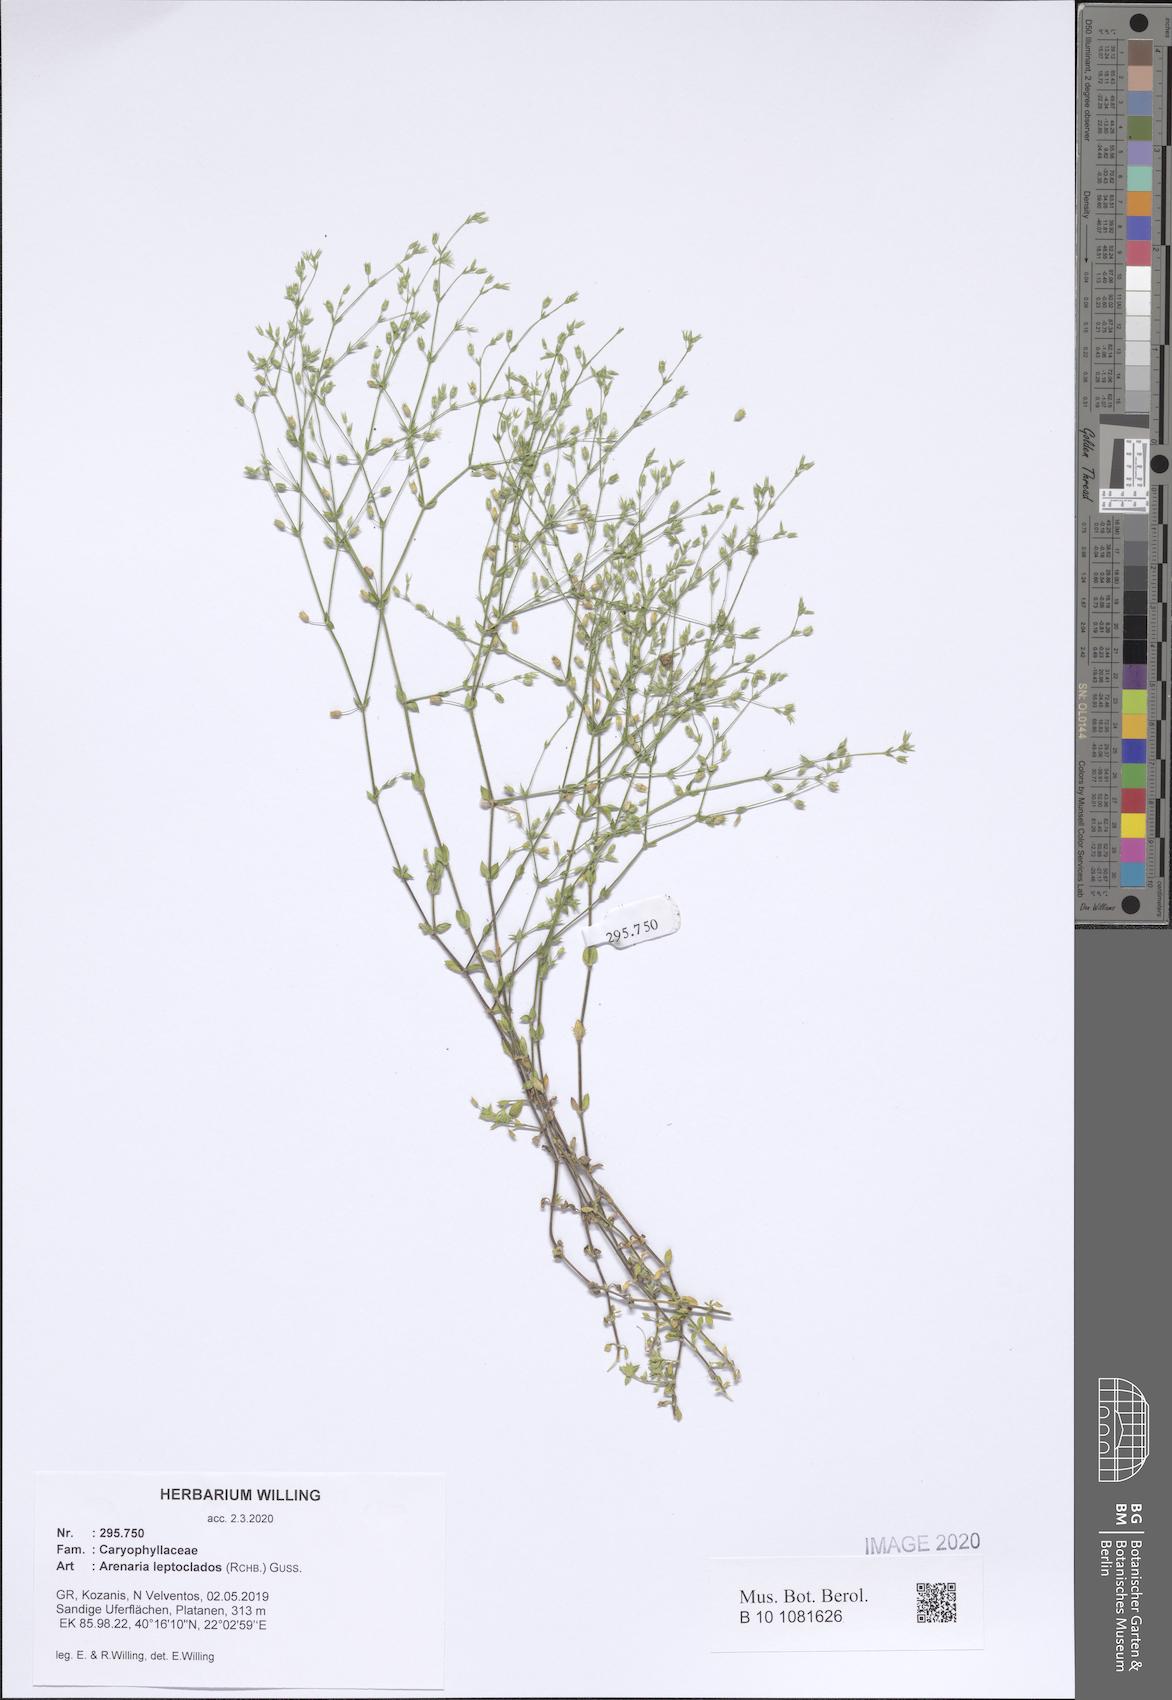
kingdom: Plantae
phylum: Tracheophyta
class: Magnoliopsida
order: Caryophyllales
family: Caryophyllaceae
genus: Arenaria
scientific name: Arenaria leptoclados
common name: Thyme-leaved sandwort
